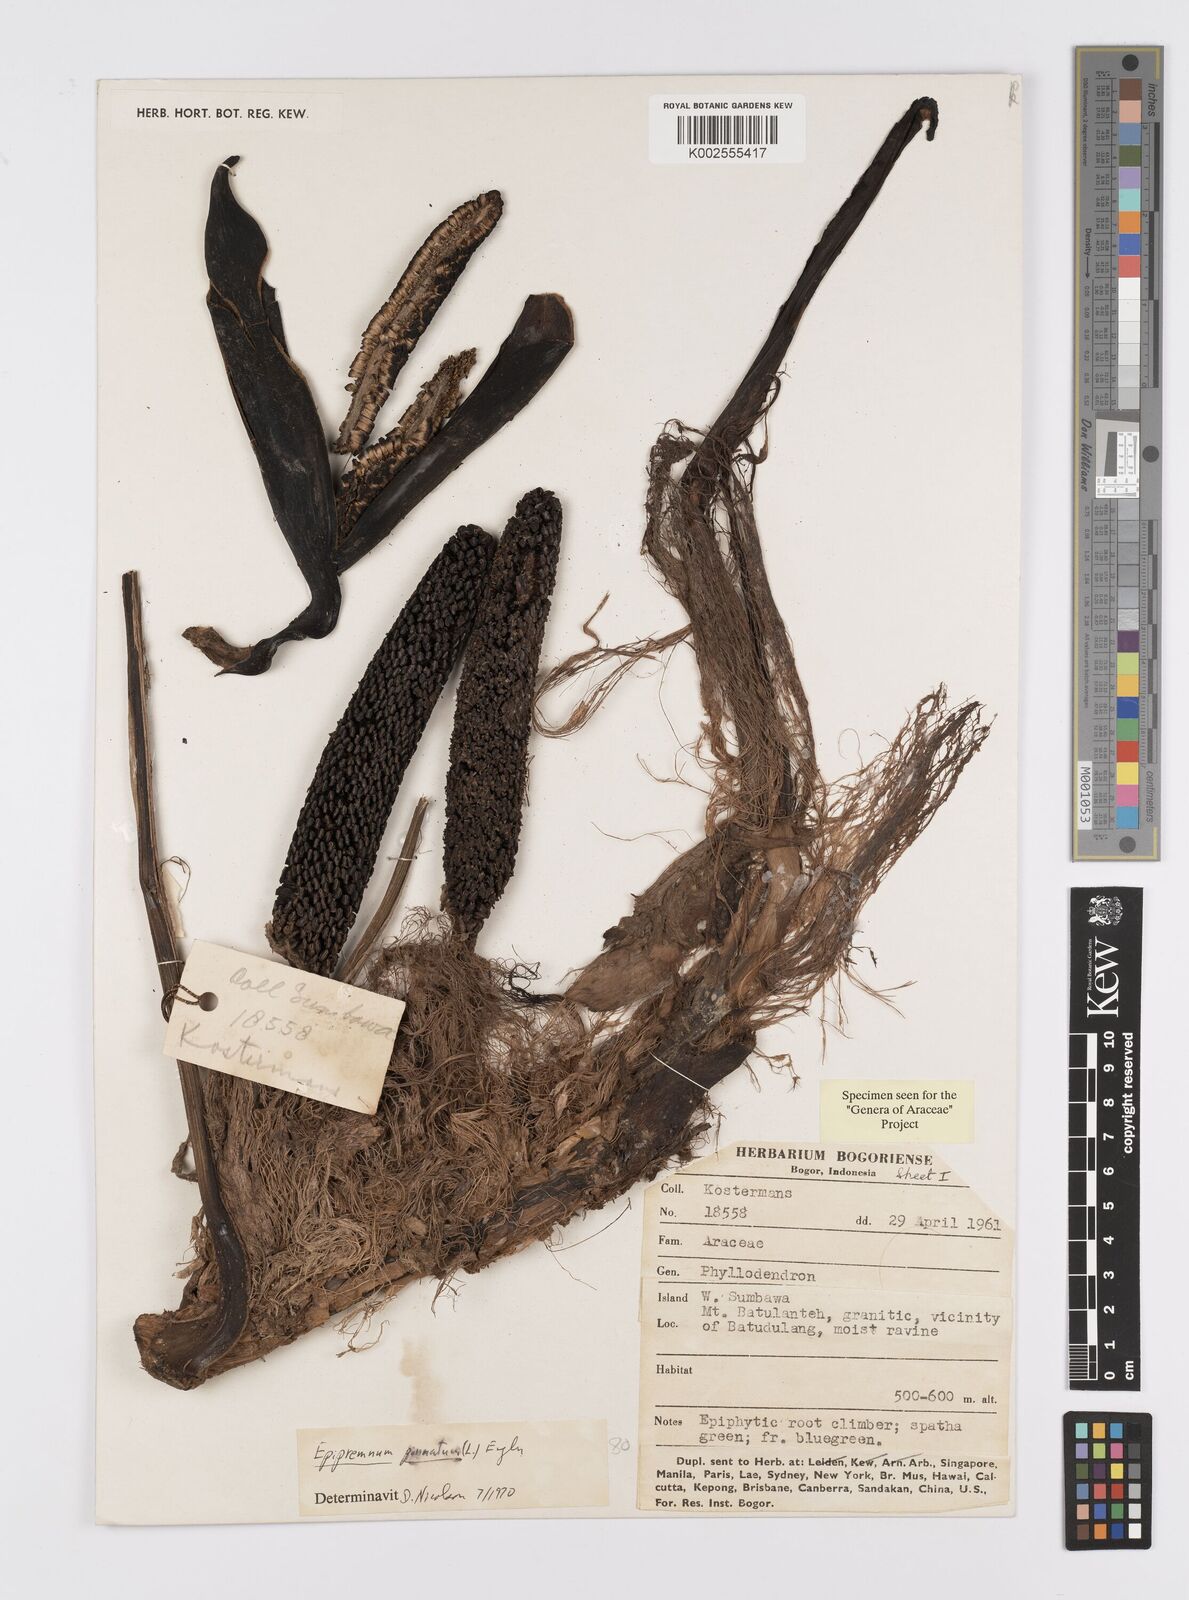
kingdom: Plantae
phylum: Tracheophyta
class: Liliopsida
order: Alismatales
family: Araceae
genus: Epipremnum
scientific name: Epipremnum pinnatum
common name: Centipede tongavine
